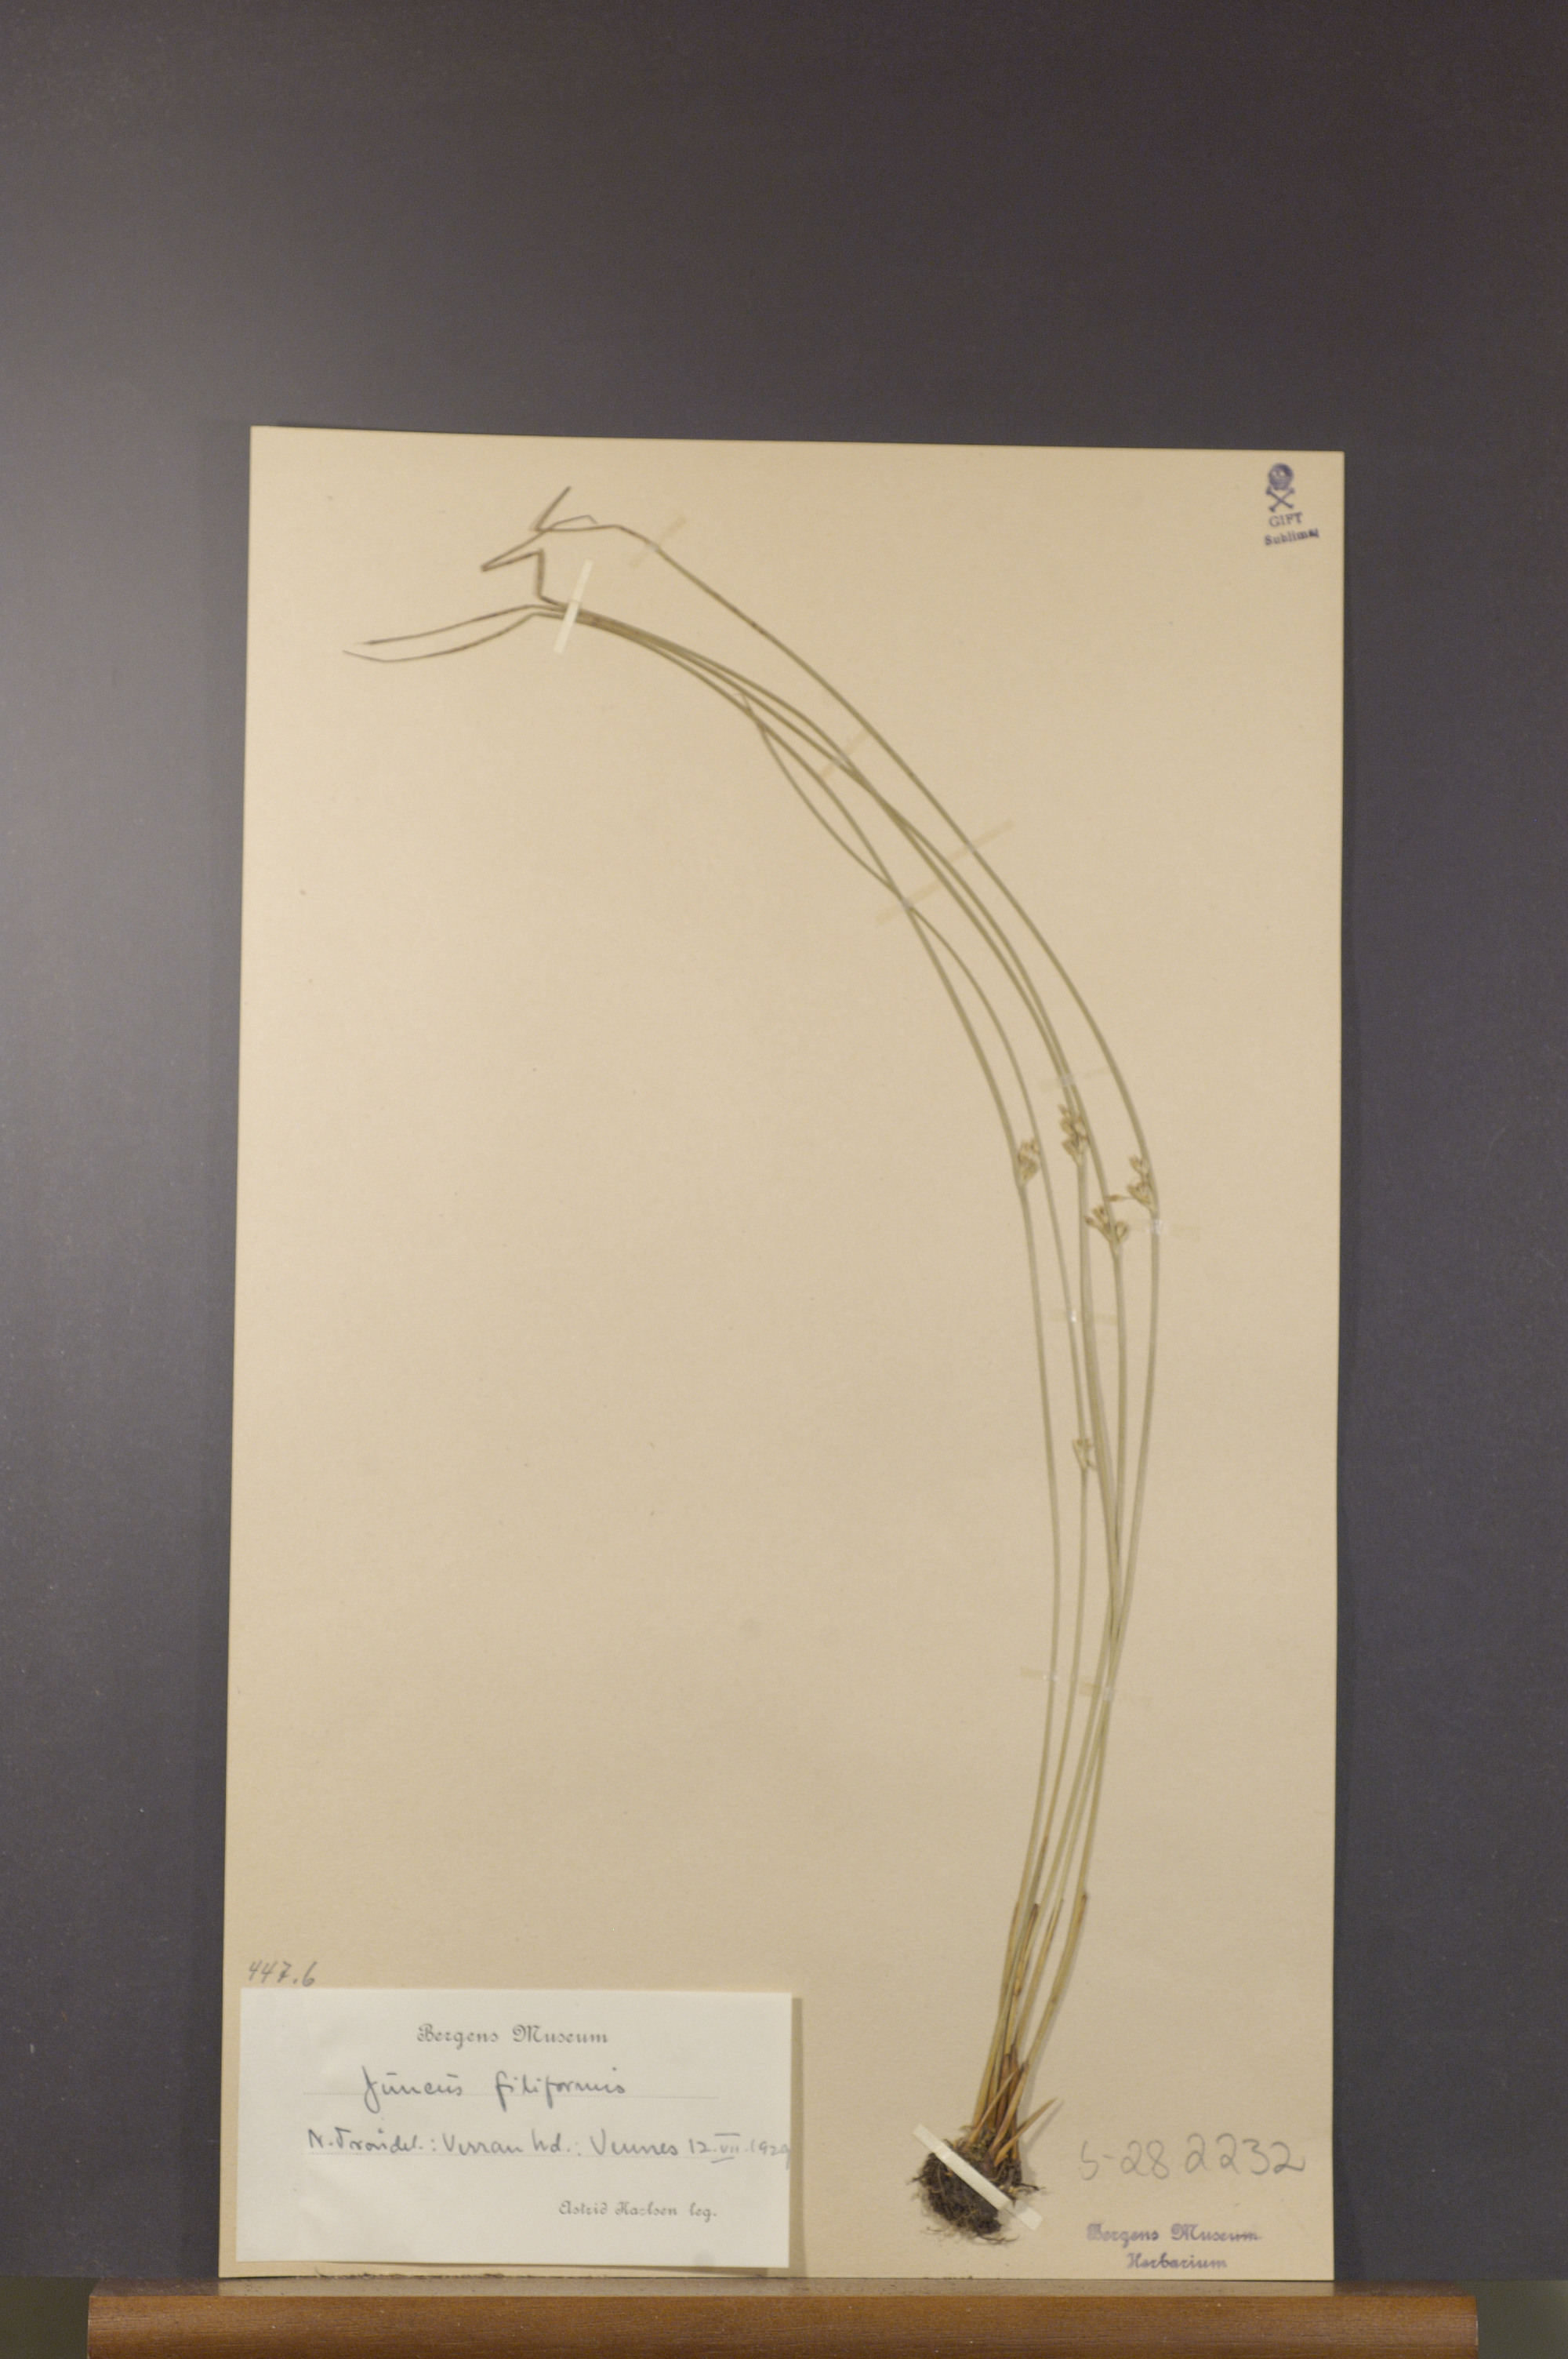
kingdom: Plantae
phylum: Tracheophyta
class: Liliopsida
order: Poales
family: Juncaceae
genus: Juncus
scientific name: Juncus filiformis
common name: Thread rush
